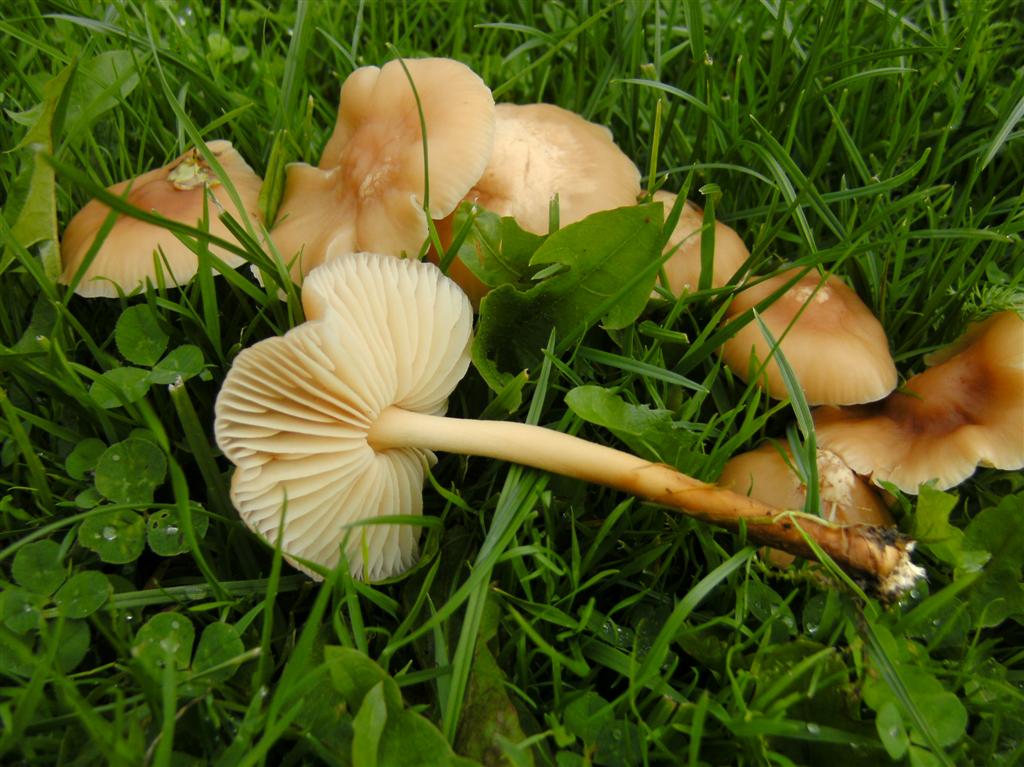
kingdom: Fungi
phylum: Basidiomycota
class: Agaricomycetes
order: Agaricales
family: Marasmiaceae
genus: Marasmius
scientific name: Marasmius oreades
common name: elledans-bruskhat
